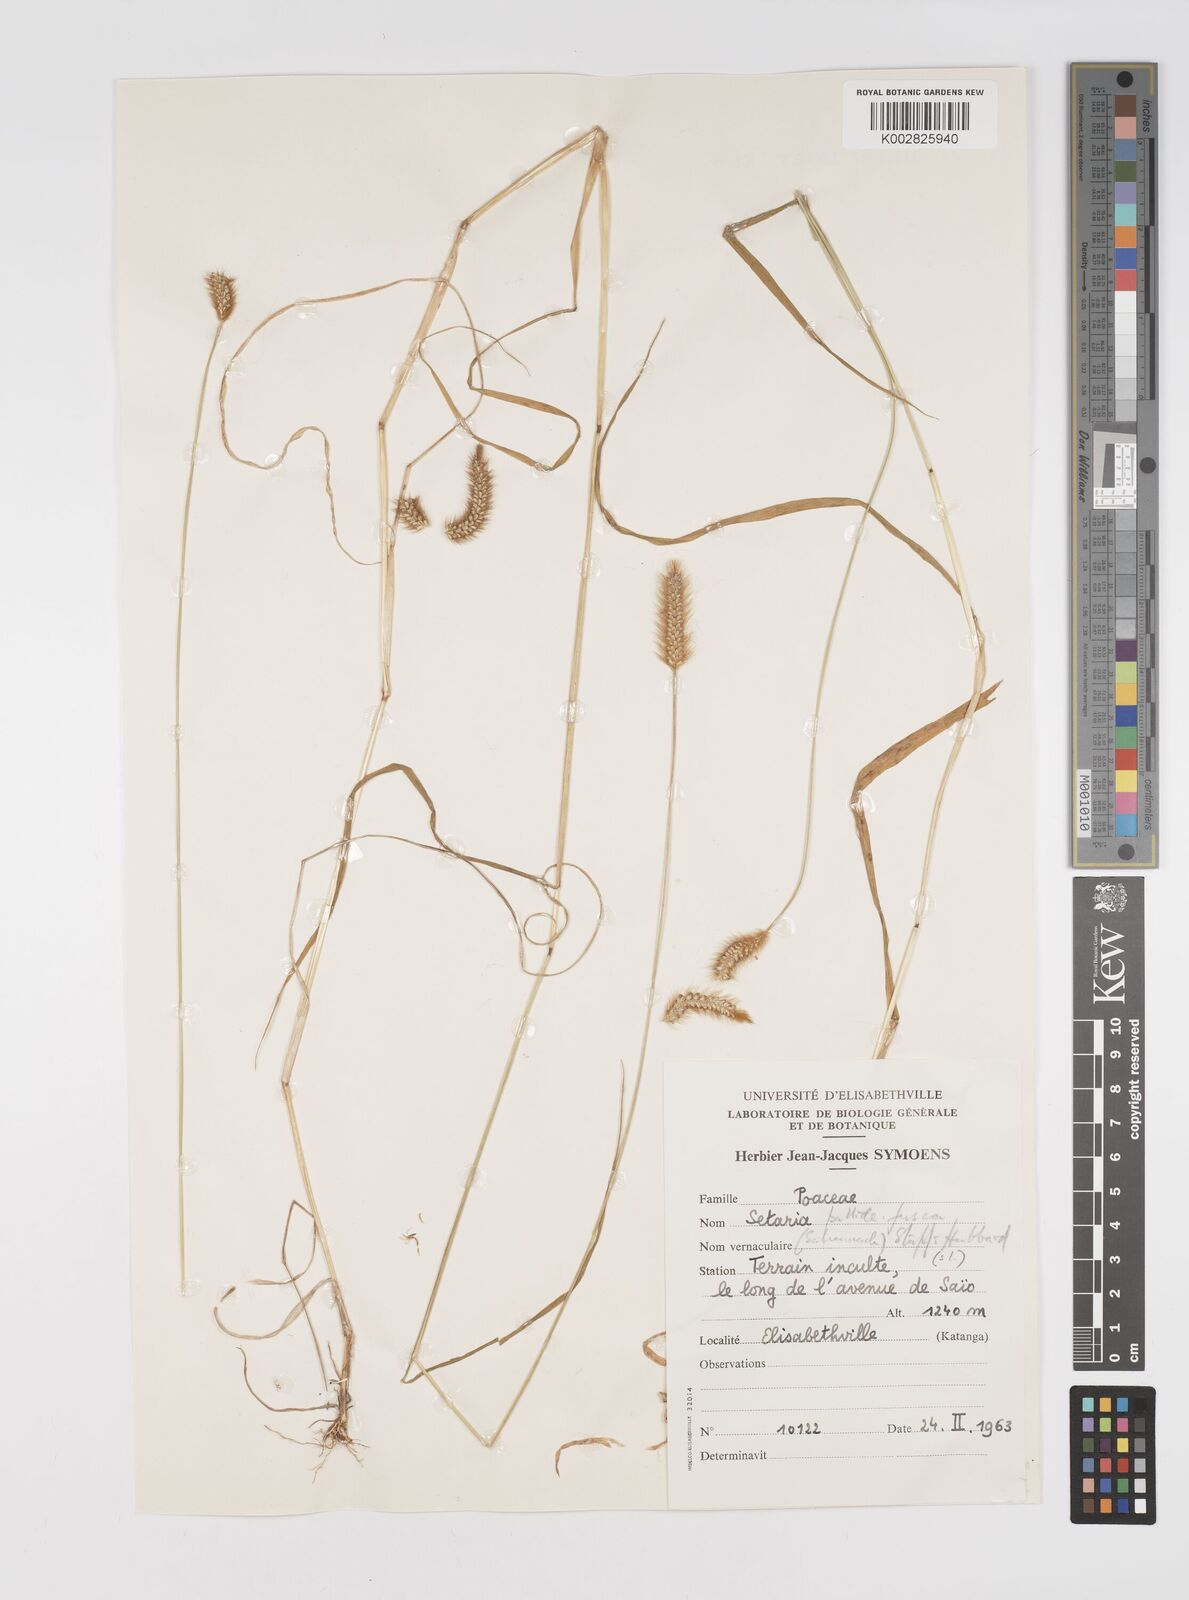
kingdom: Plantae
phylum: Tracheophyta
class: Liliopsida
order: Poales
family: Poaceae
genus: Setaria
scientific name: Setaria pumila
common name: Yellow bristle-grass
